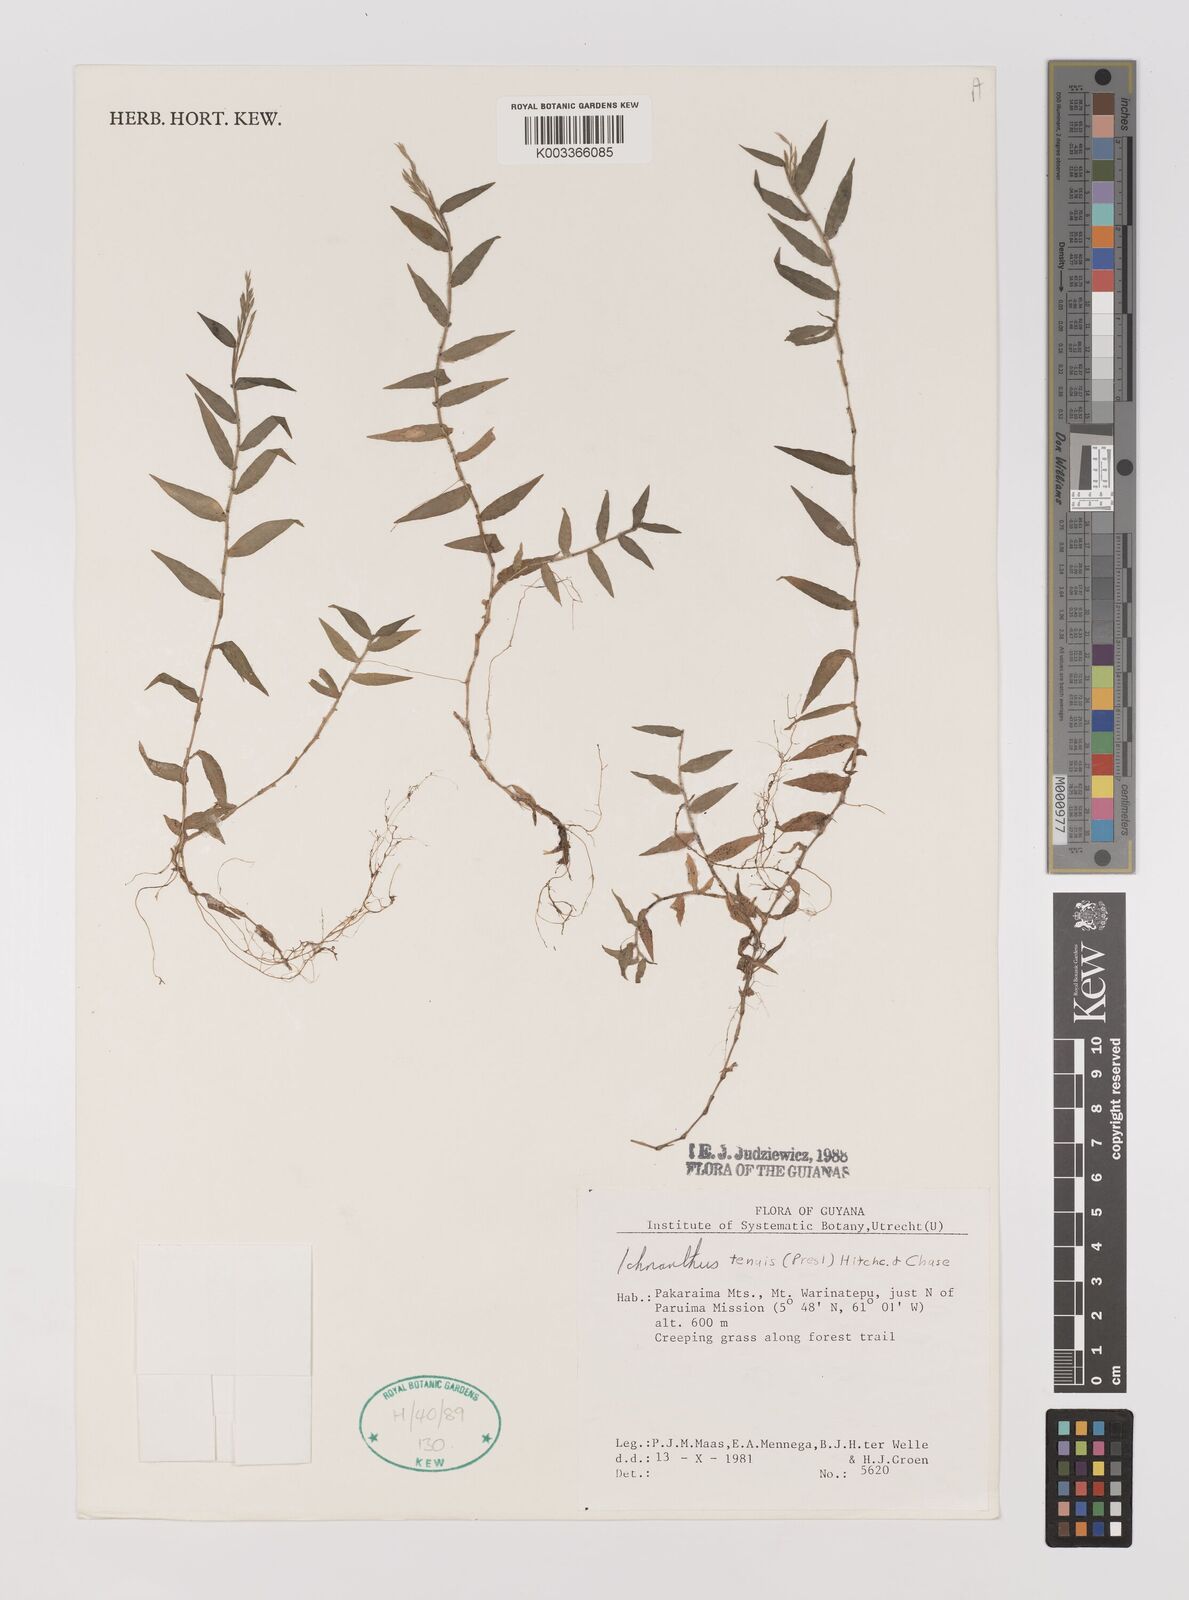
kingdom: Plantae
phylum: Tracheophyta
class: Liliopsida
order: Poales
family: Poaceae
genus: Ichnanthus
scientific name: Ichnanthus tenuis
